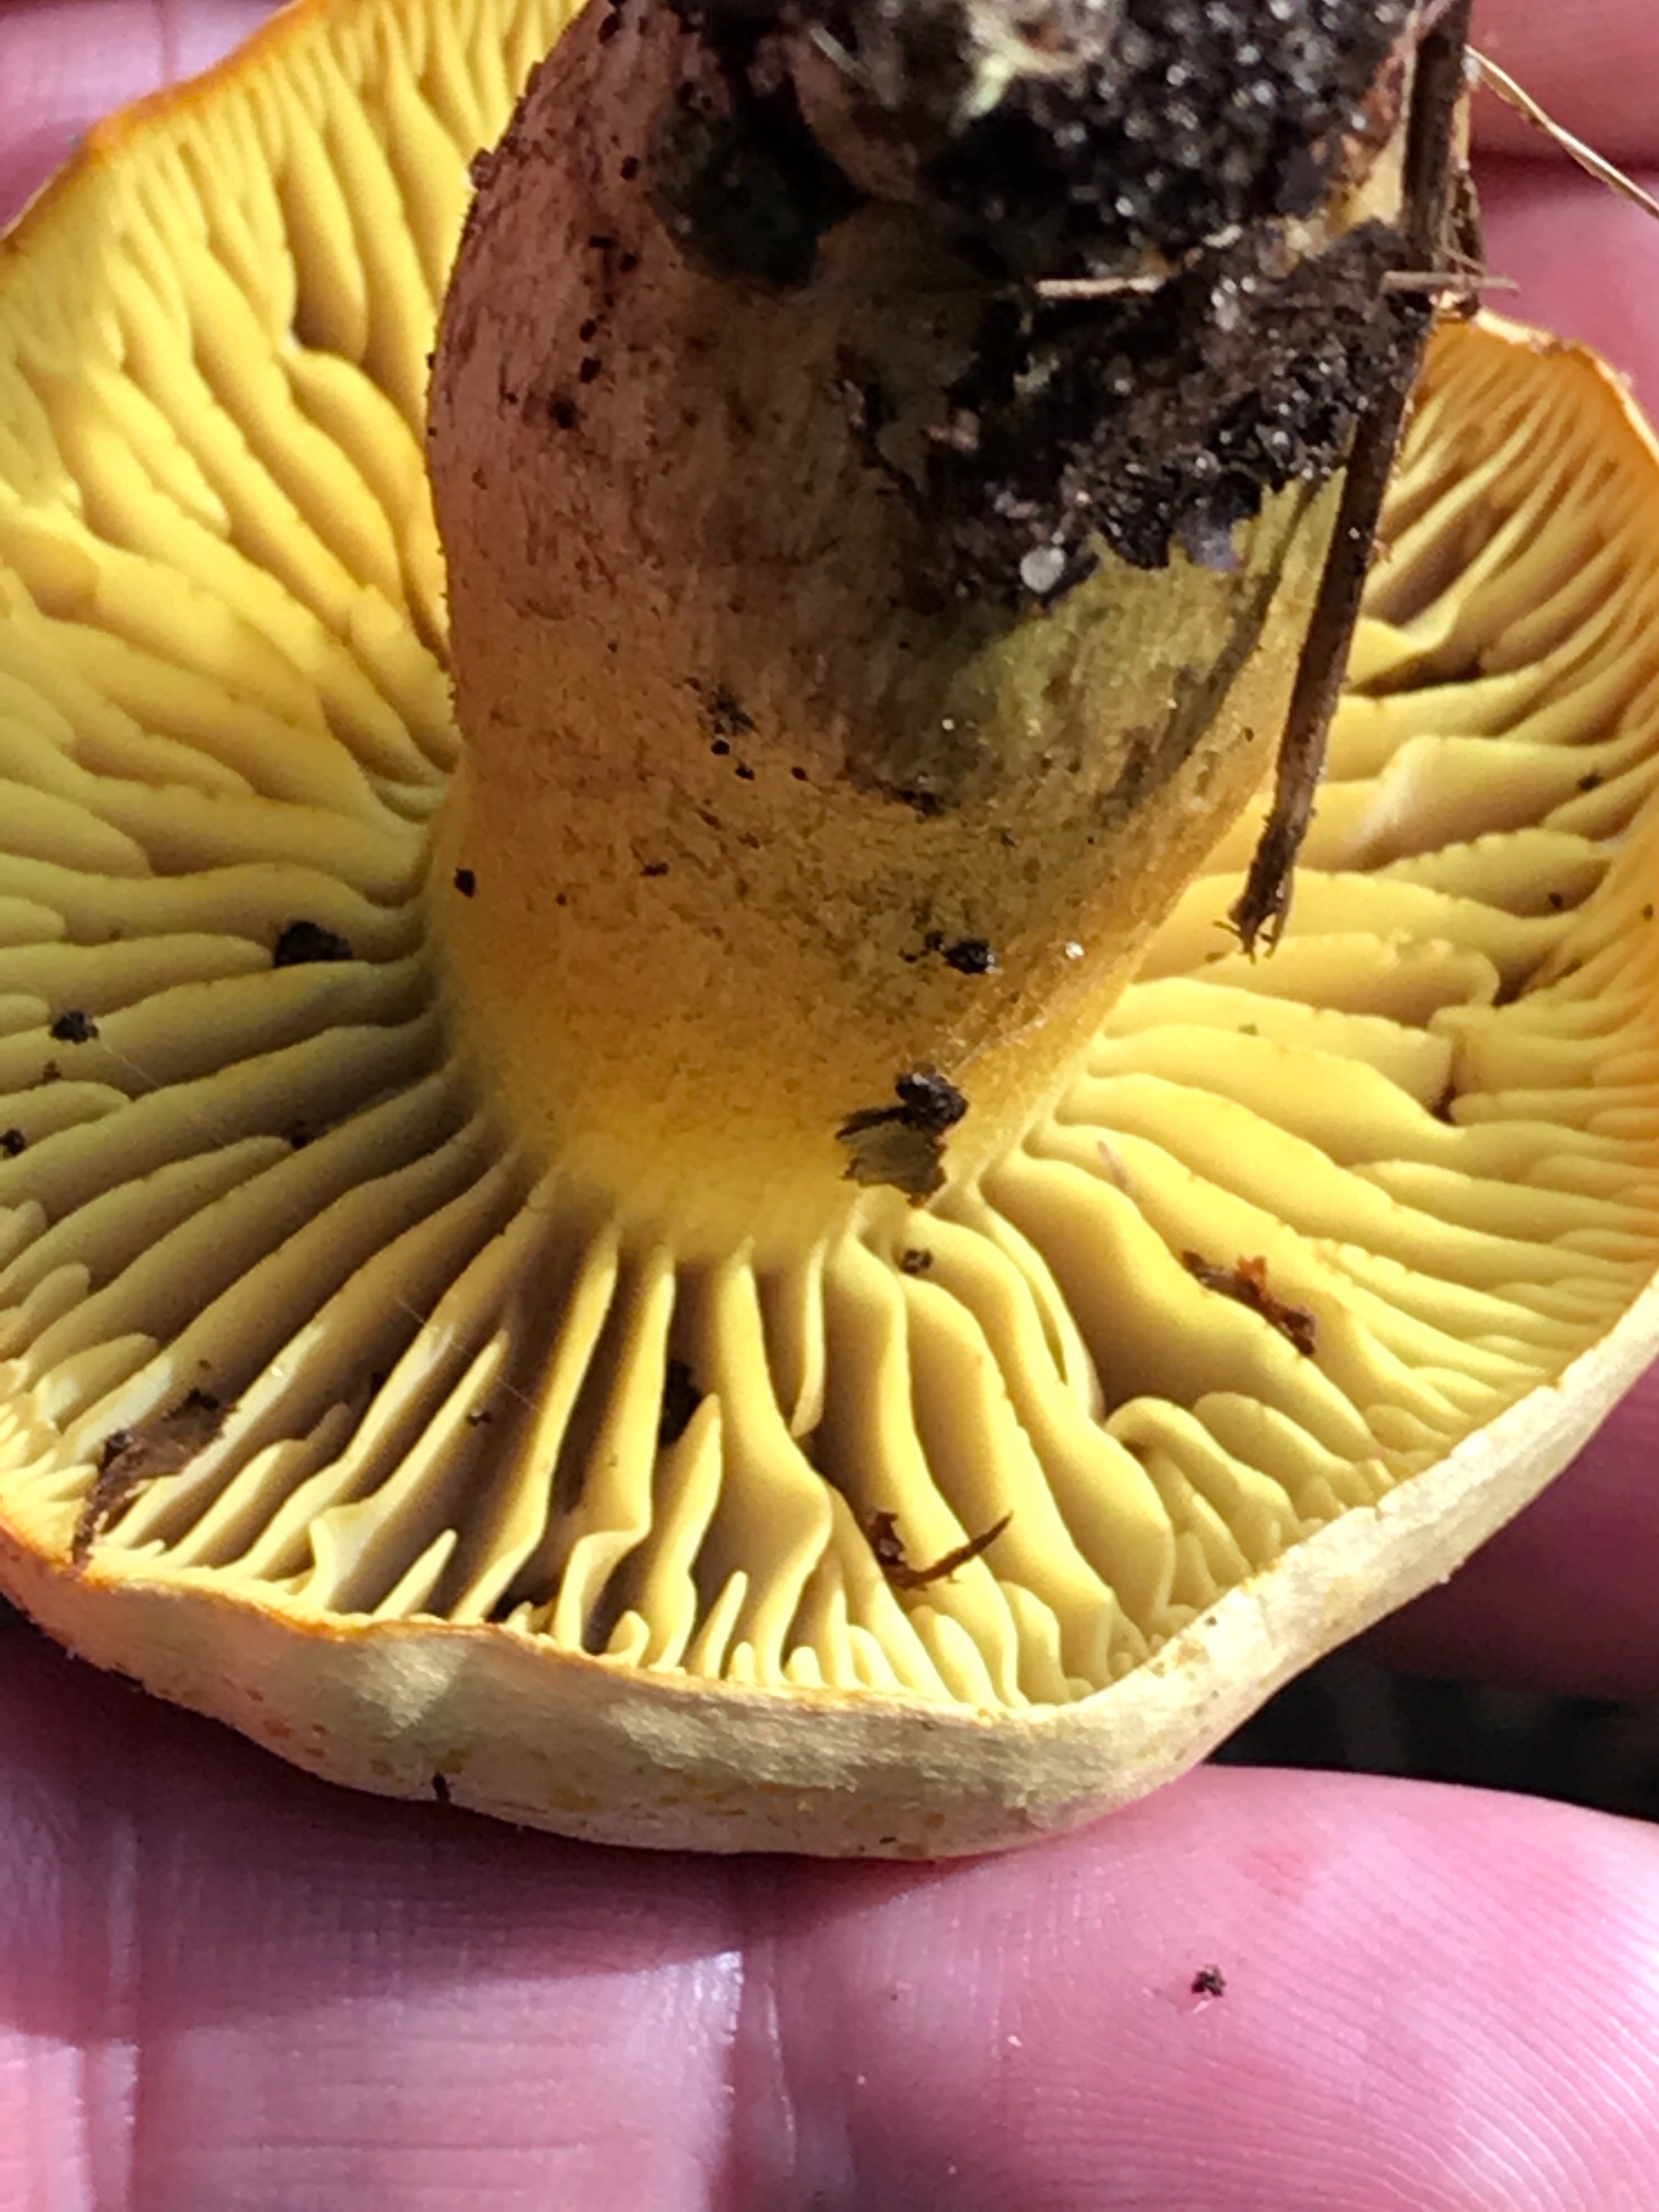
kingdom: Fungi
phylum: Basidiomycota
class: Agaricomycetes
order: Agaricales
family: Tricholomataceae
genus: Tricholoma
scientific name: Tricholoma sulphureum
